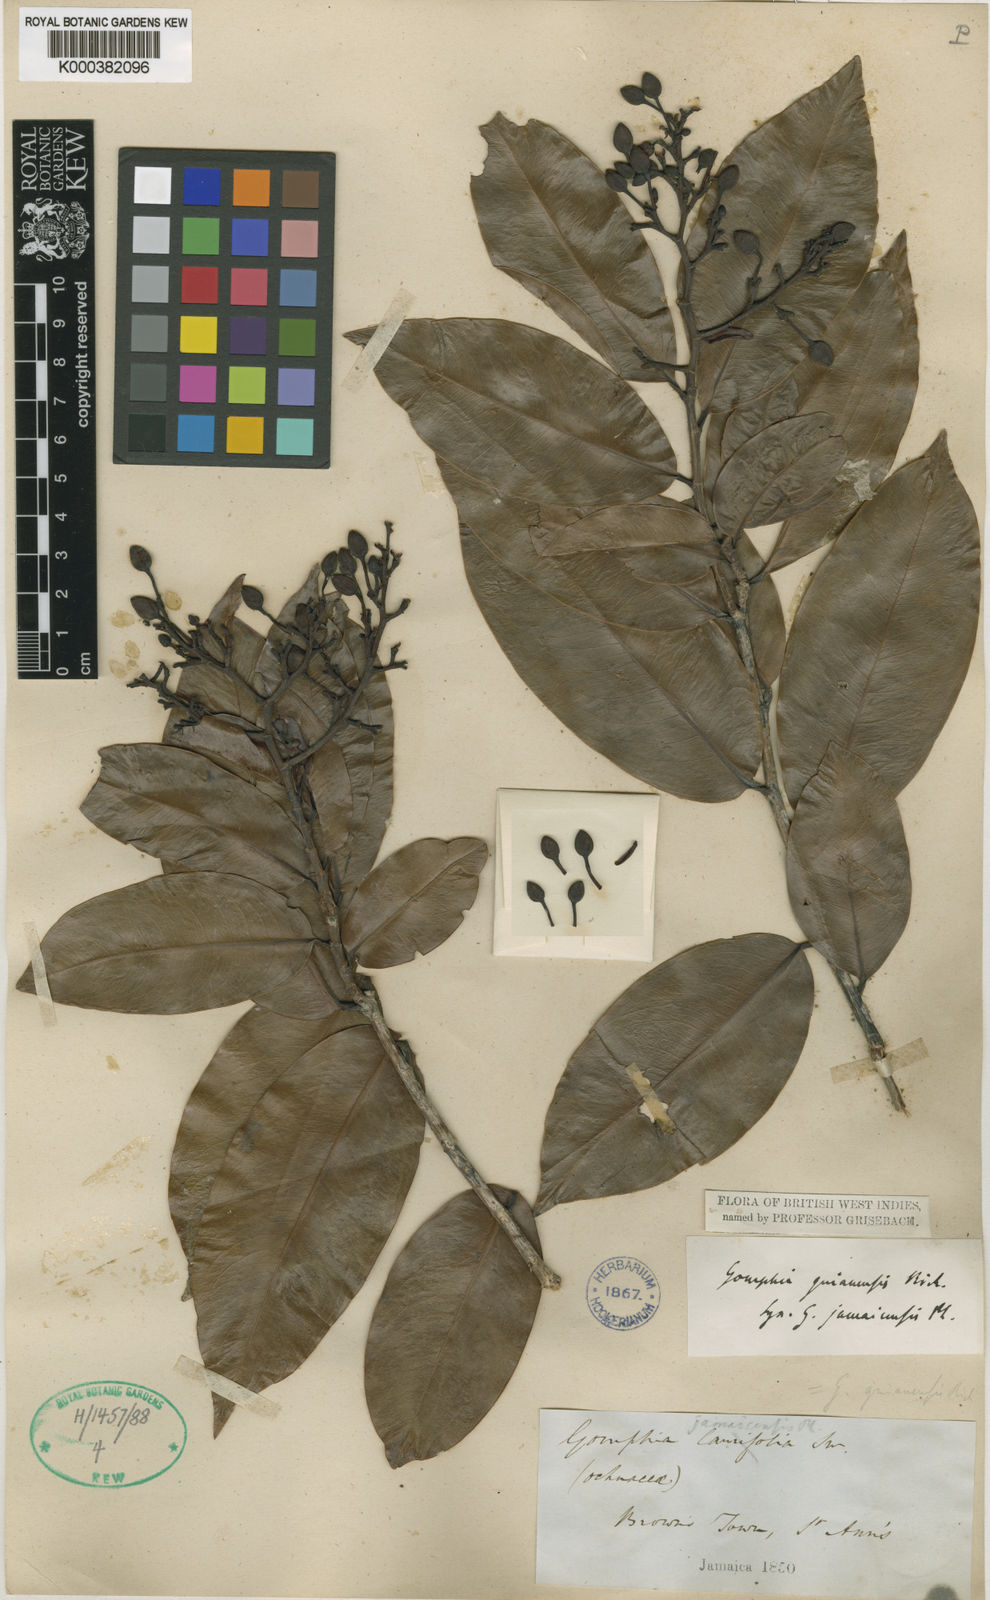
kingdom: Plantae
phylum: Tracheophyta
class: Magnoliopsida
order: Malpighiales
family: Ochnaceae
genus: Ouratea
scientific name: Ouratea jamaicensis
